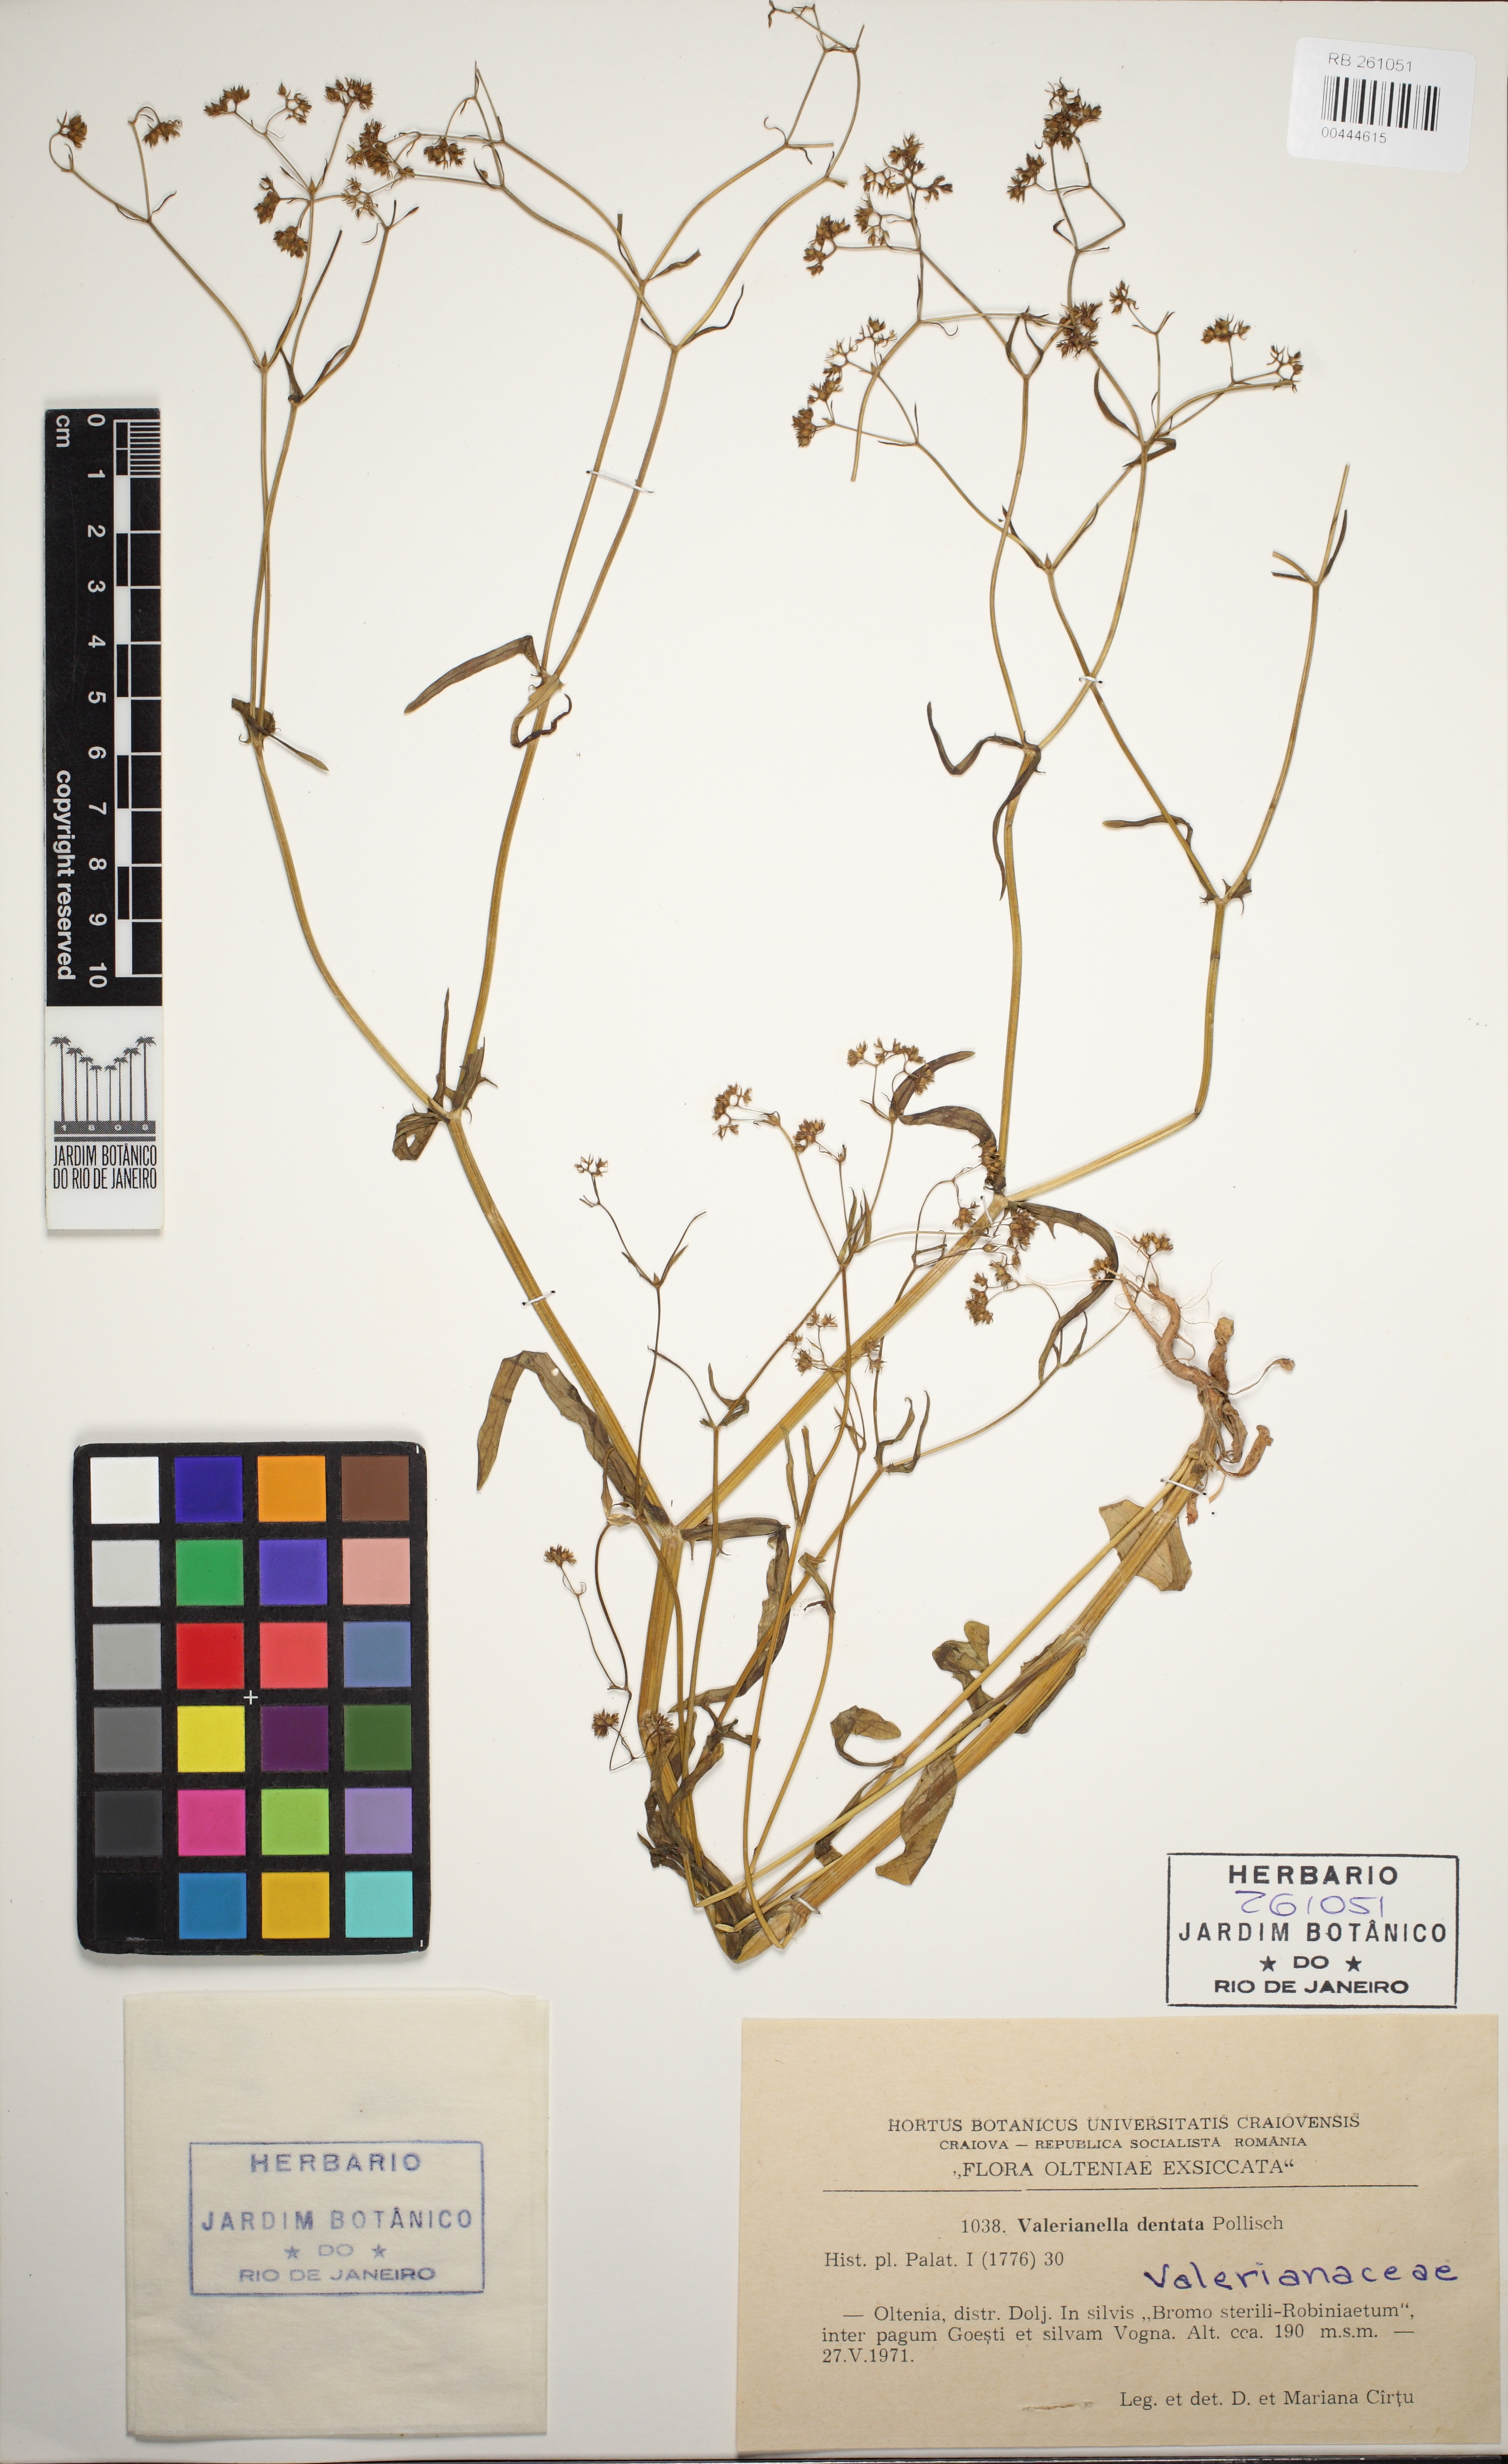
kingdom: Plantae
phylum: Tracheophyta
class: Magnoliopsida
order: Dipsacales
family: Caprifoliaceae
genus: Valerianella
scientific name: Valerianella rimosa
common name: Broad-fruited cornsalad
